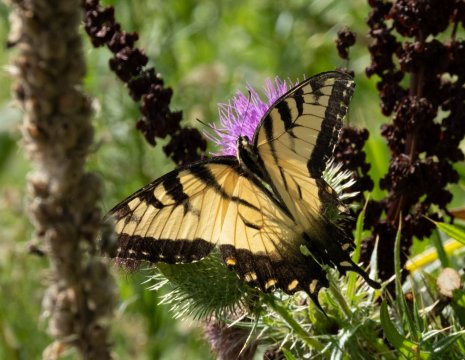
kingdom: Animalia
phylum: Arthropoda
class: Insecta
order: Lepidoptera
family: Papilionidae
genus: Pterourus
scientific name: Pterourus glaucus
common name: Eastern Tiger Swallowtail
